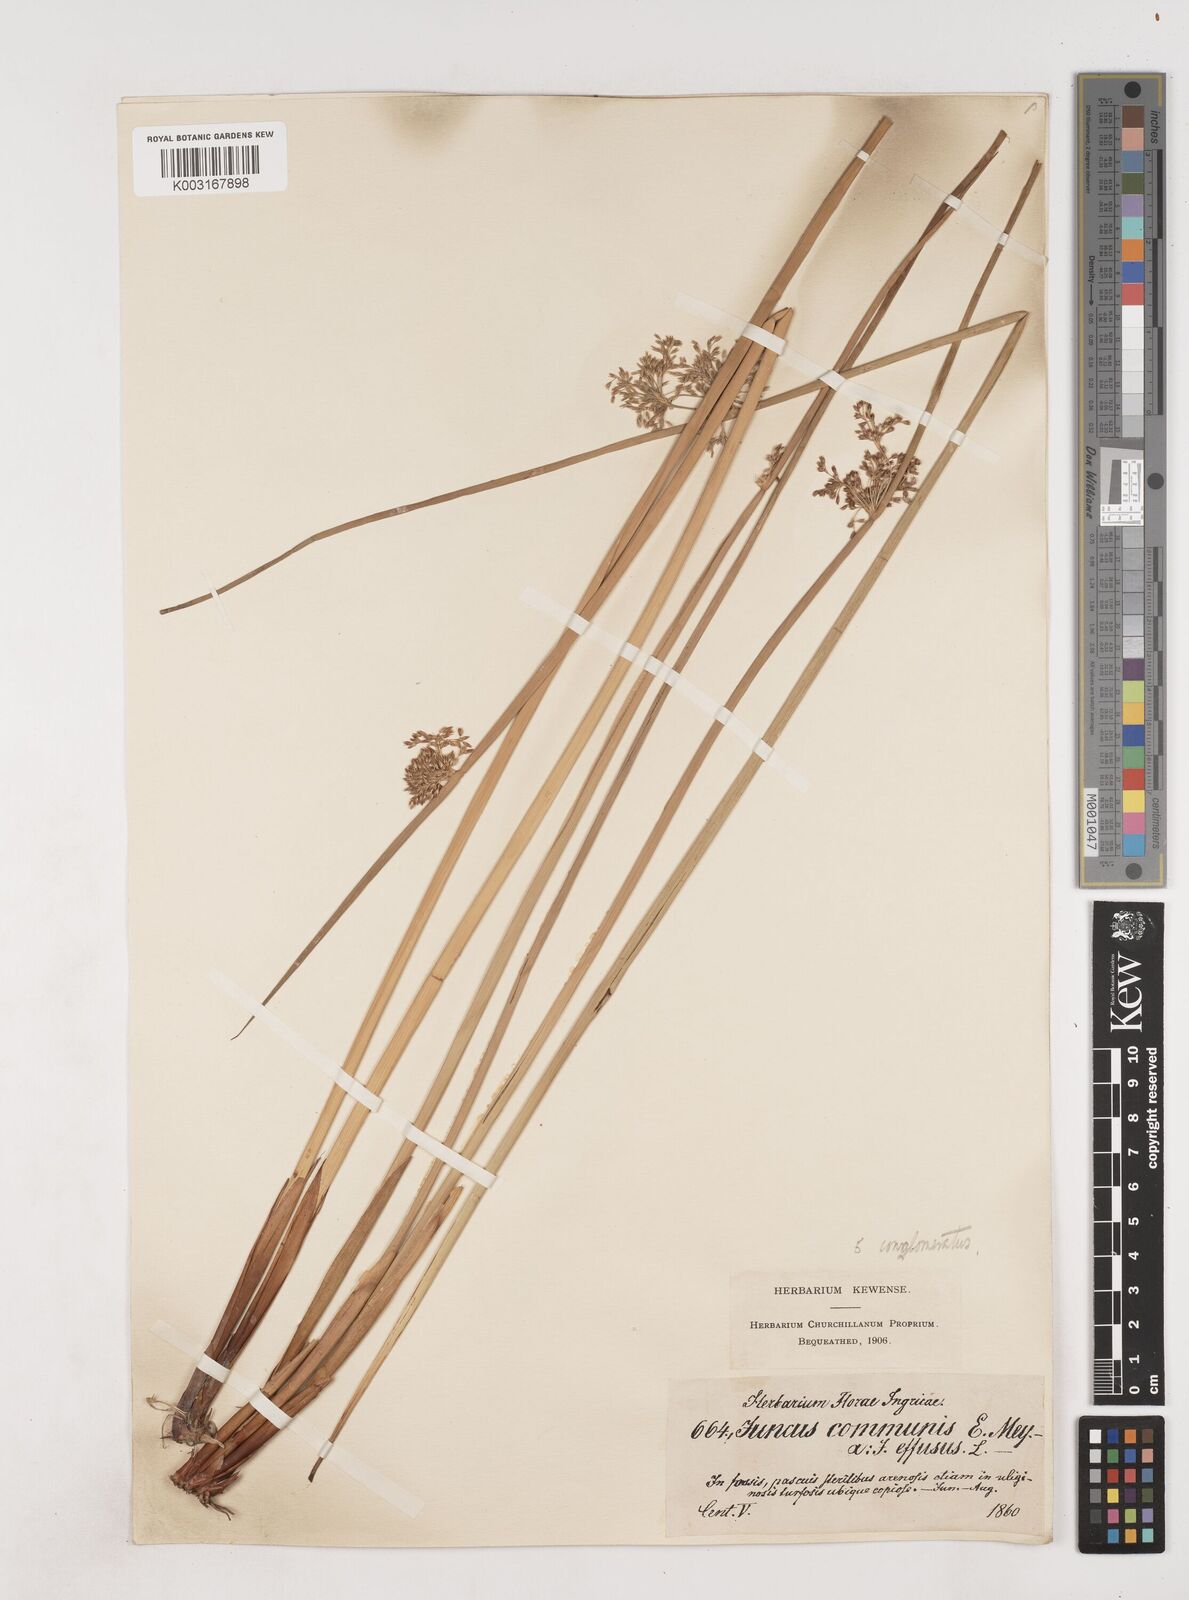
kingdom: Plantae
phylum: Tracheophyta
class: Liliopsida
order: Poales
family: Juncaceae
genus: Juncus
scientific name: Juncus effusus
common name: Soft rush
